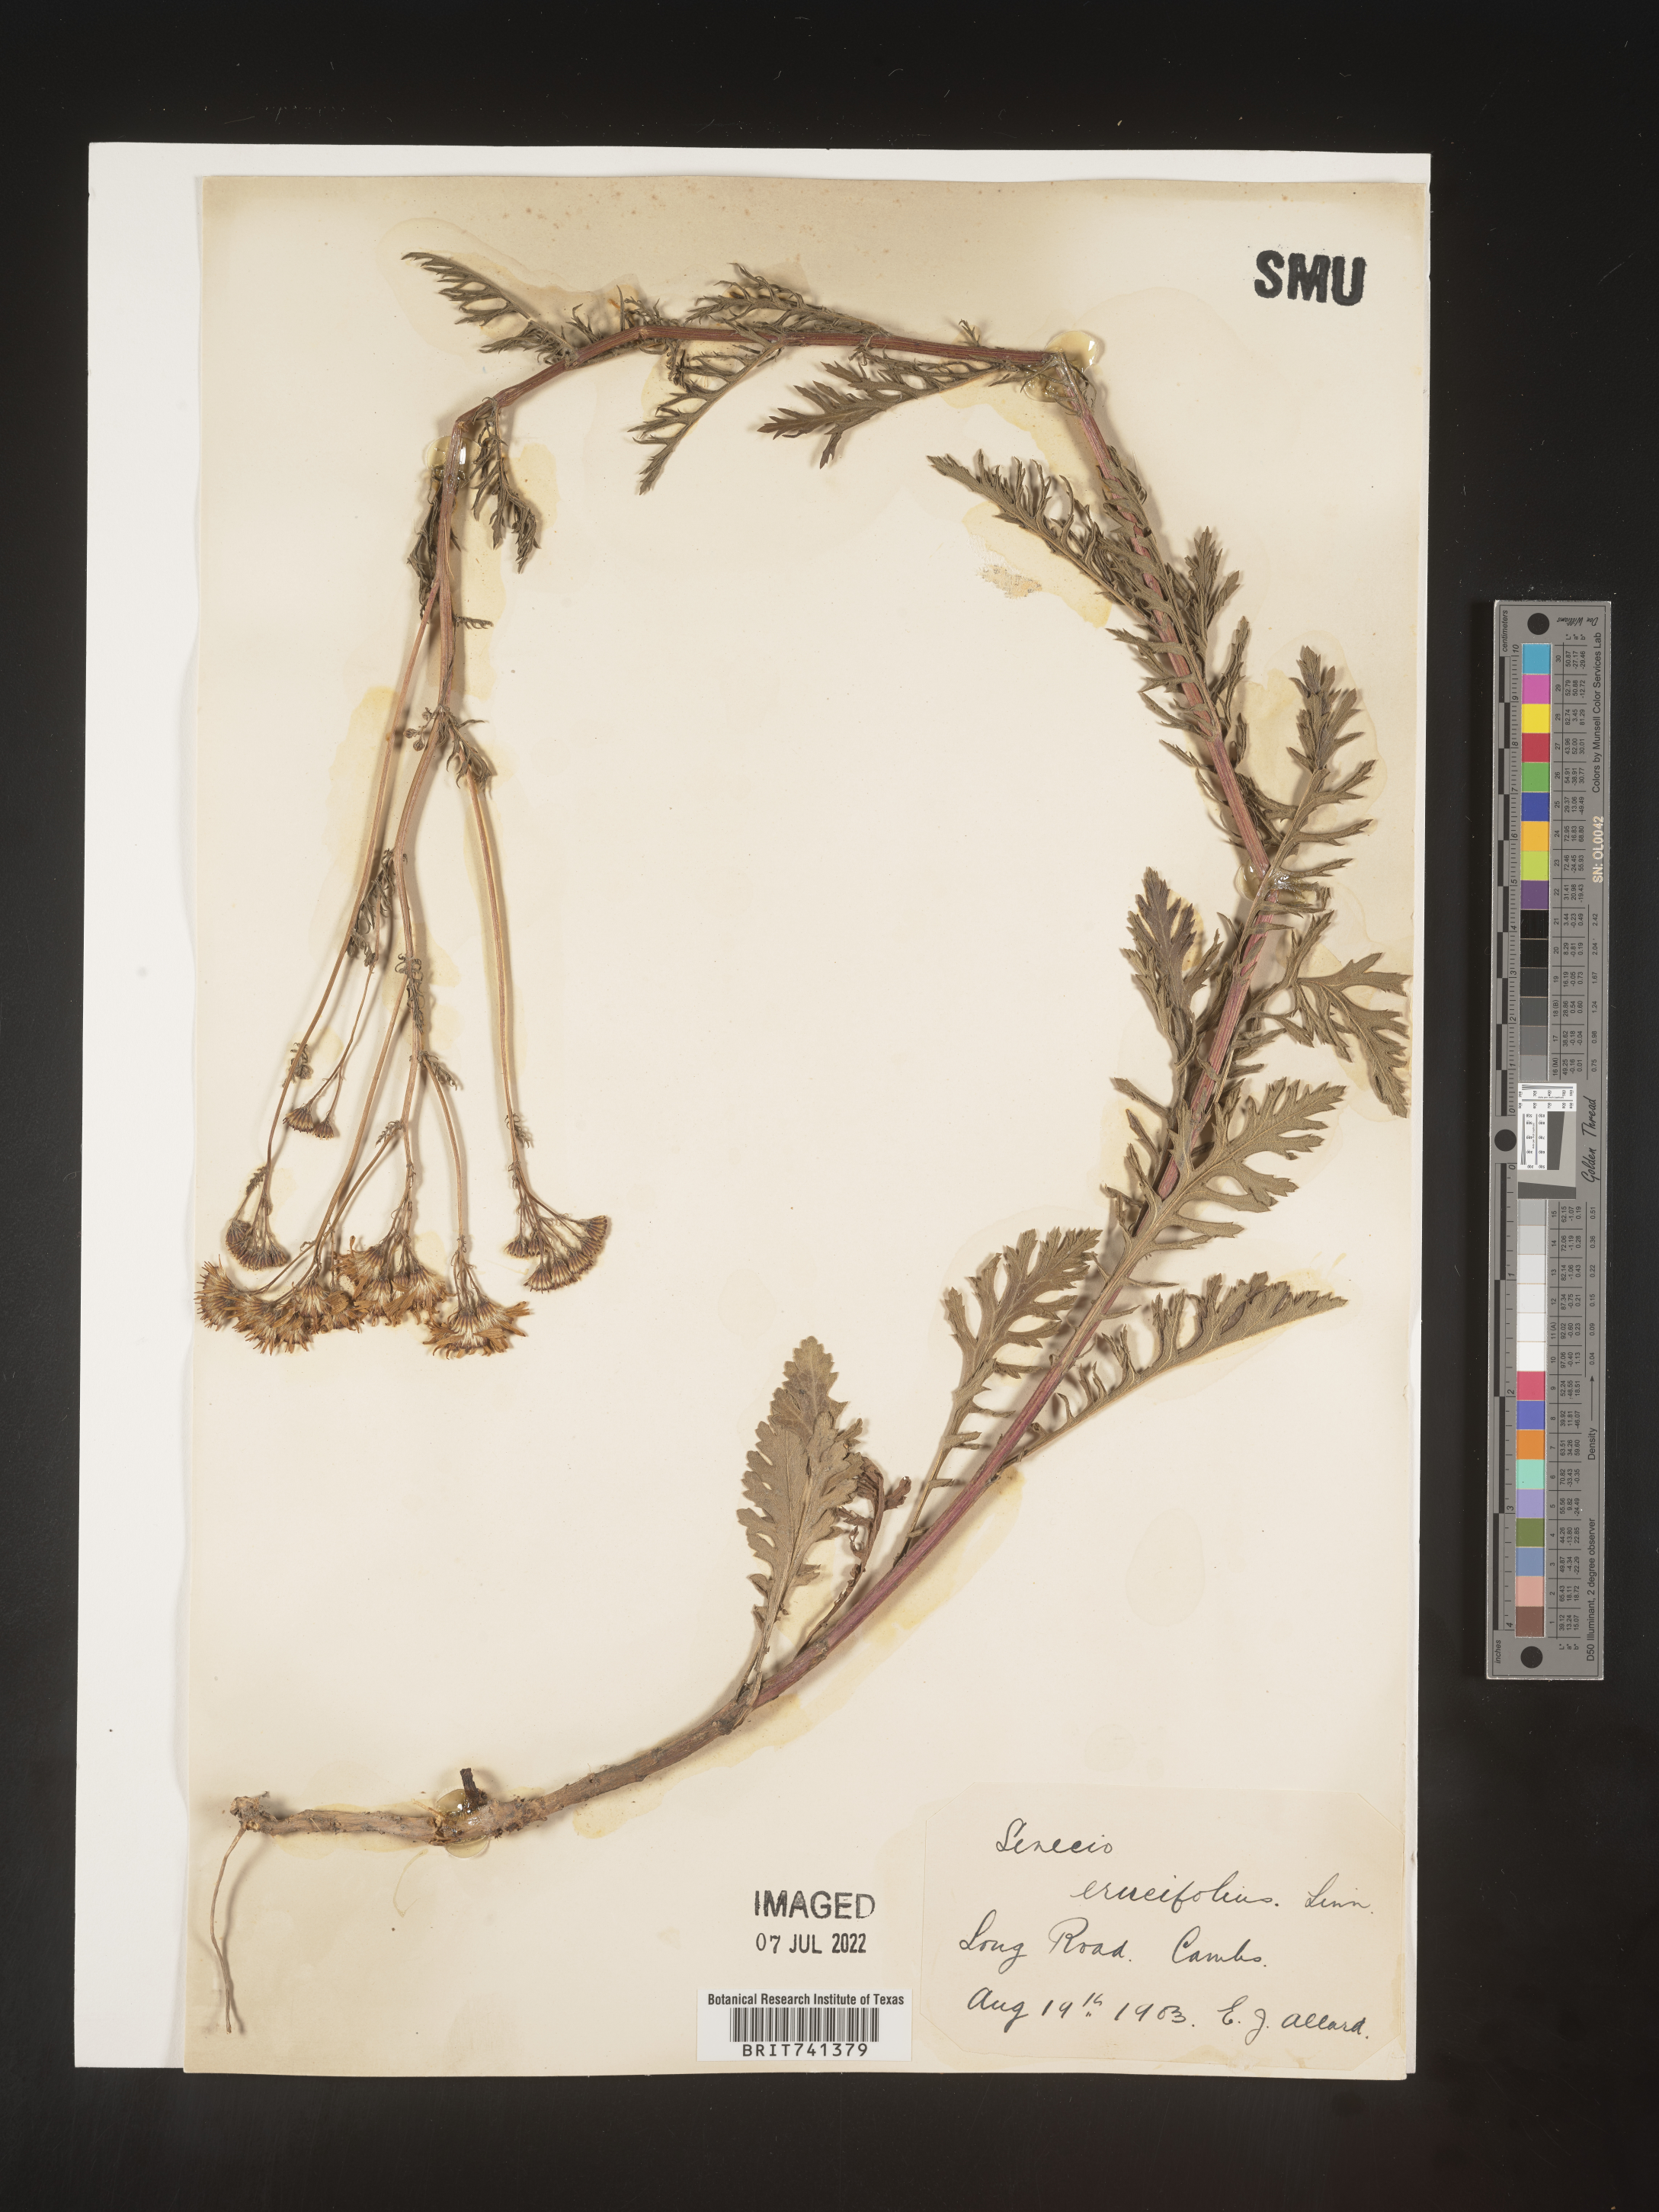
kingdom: Plantae
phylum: Tracheophyta
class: Magnoliopsida
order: Asterales
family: Asteraceae
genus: Senecio
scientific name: Senecio
